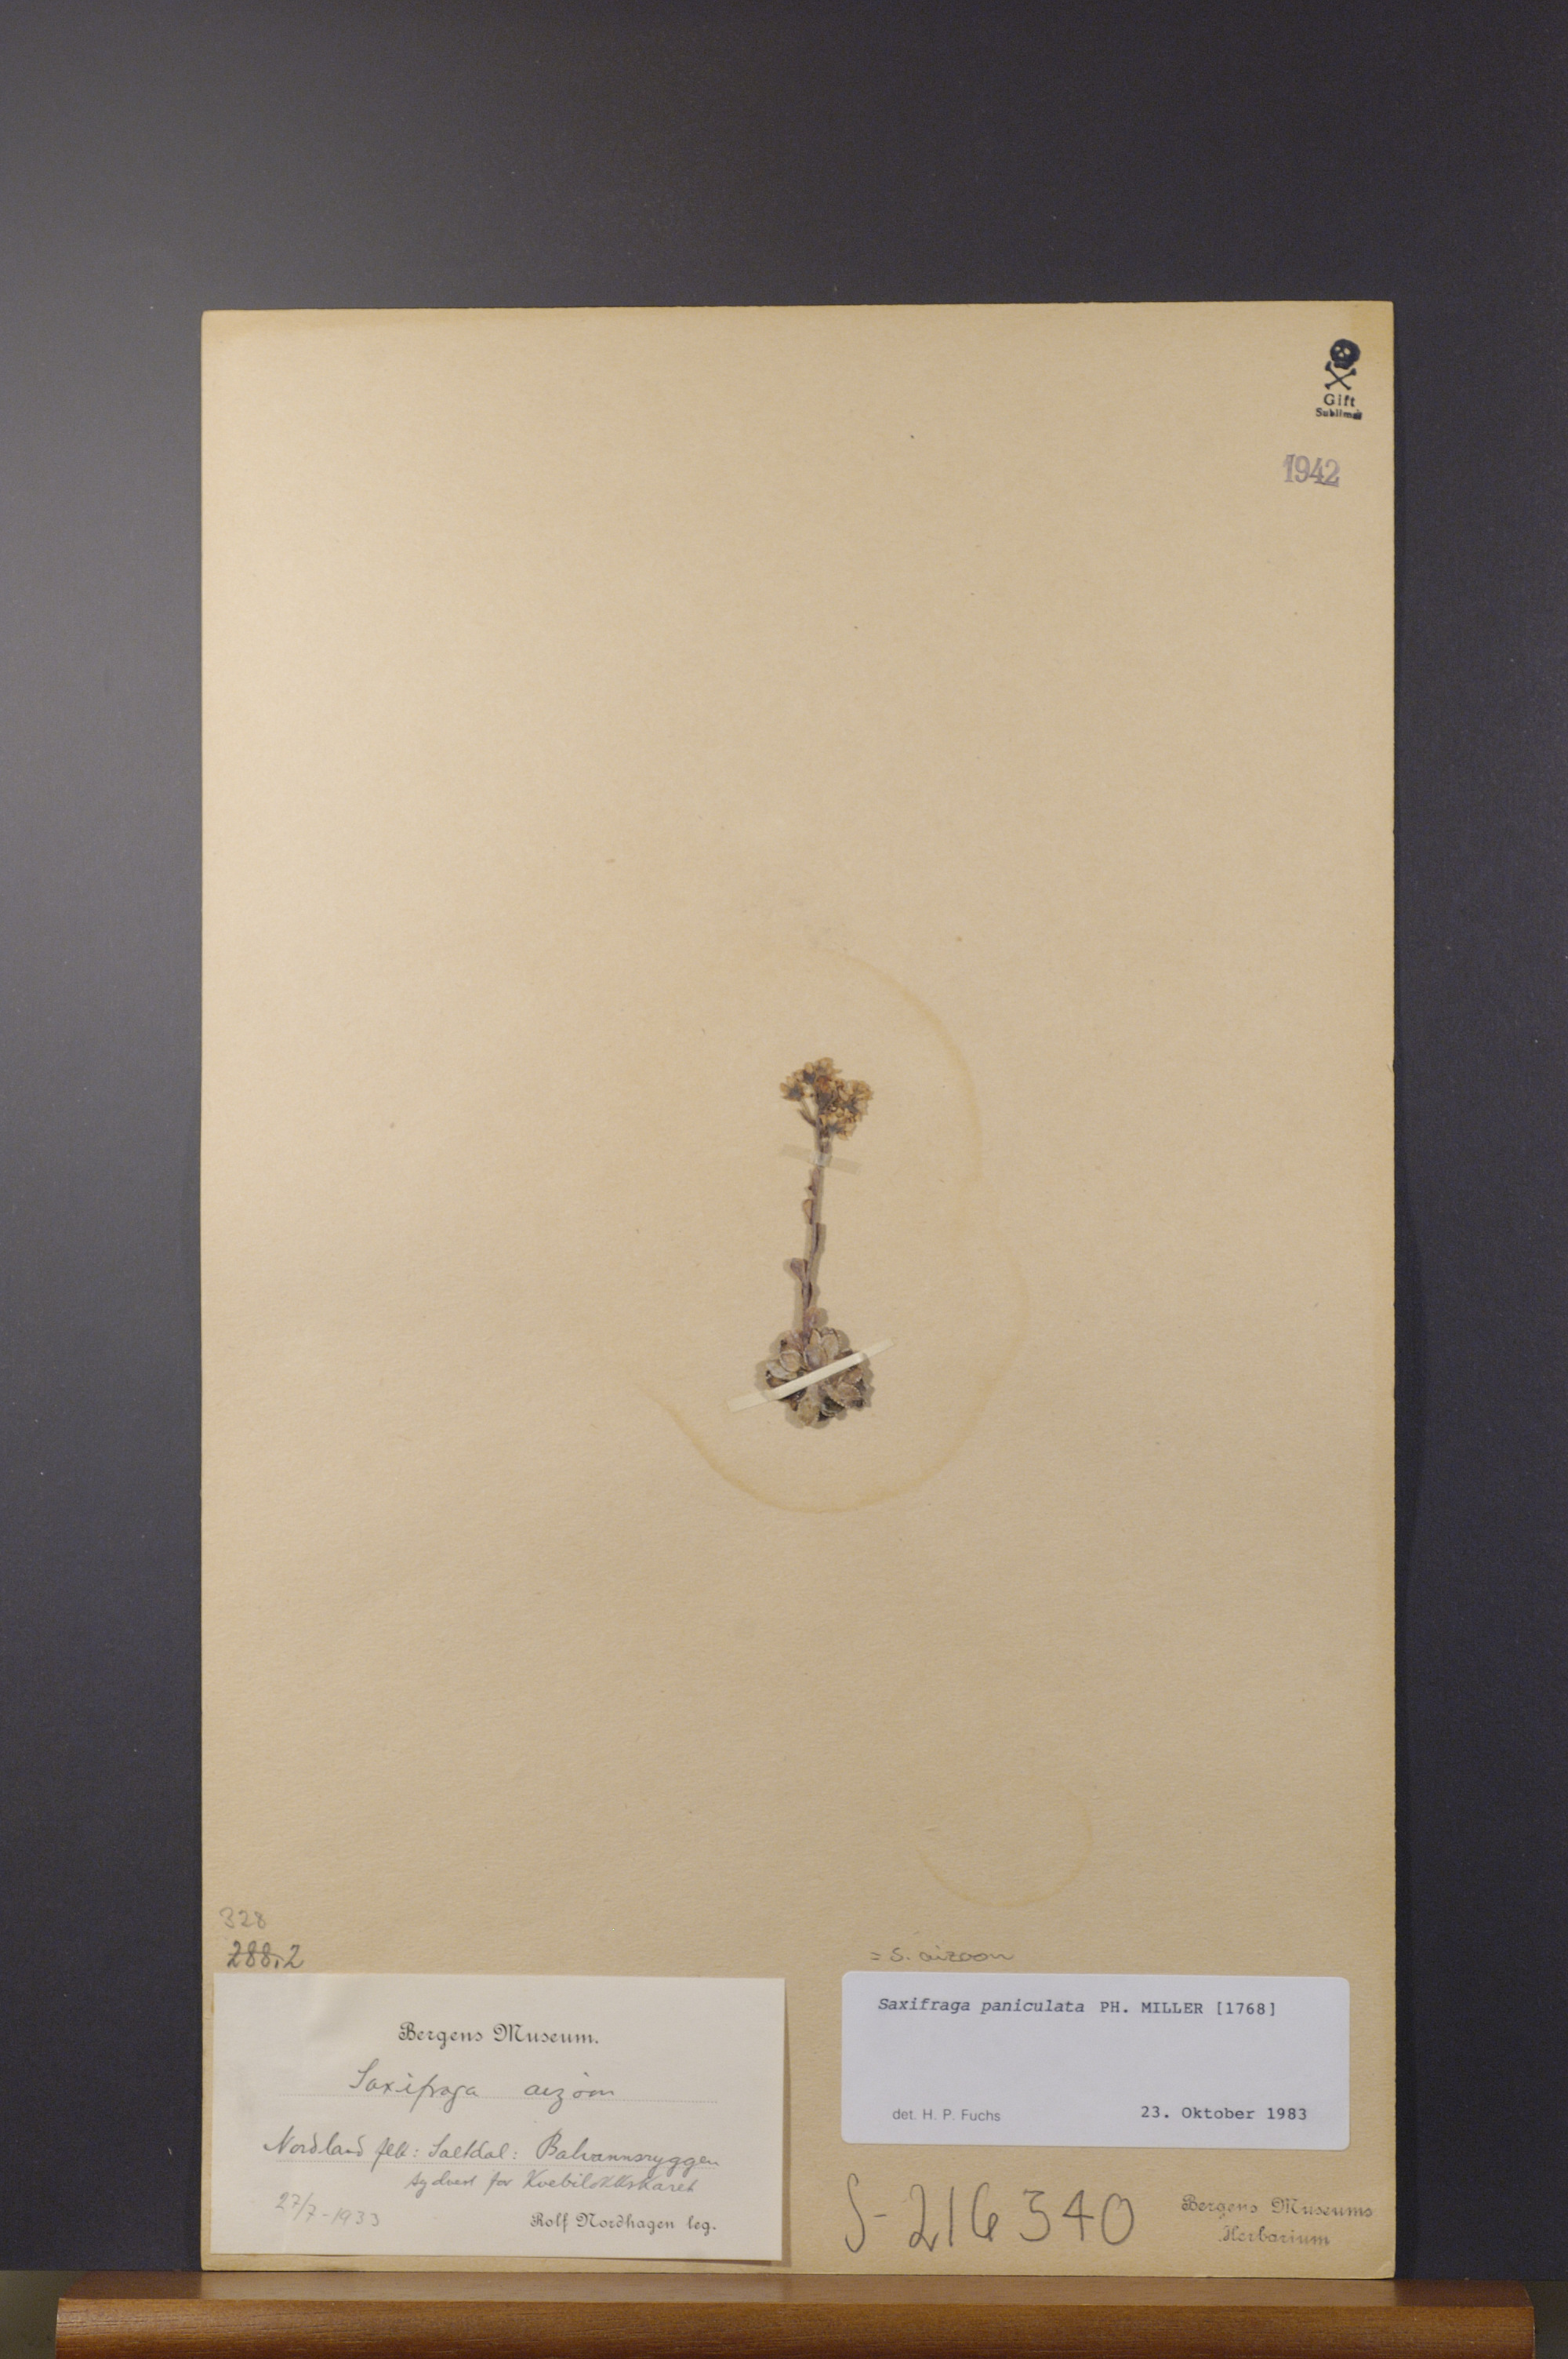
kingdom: Plantae
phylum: Tracheophyta
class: Magnoliopsida
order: Saxifragales
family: Saxifragaceae
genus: Saxifraga
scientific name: Saxifraga paniculata
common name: Livelong saxifrage
